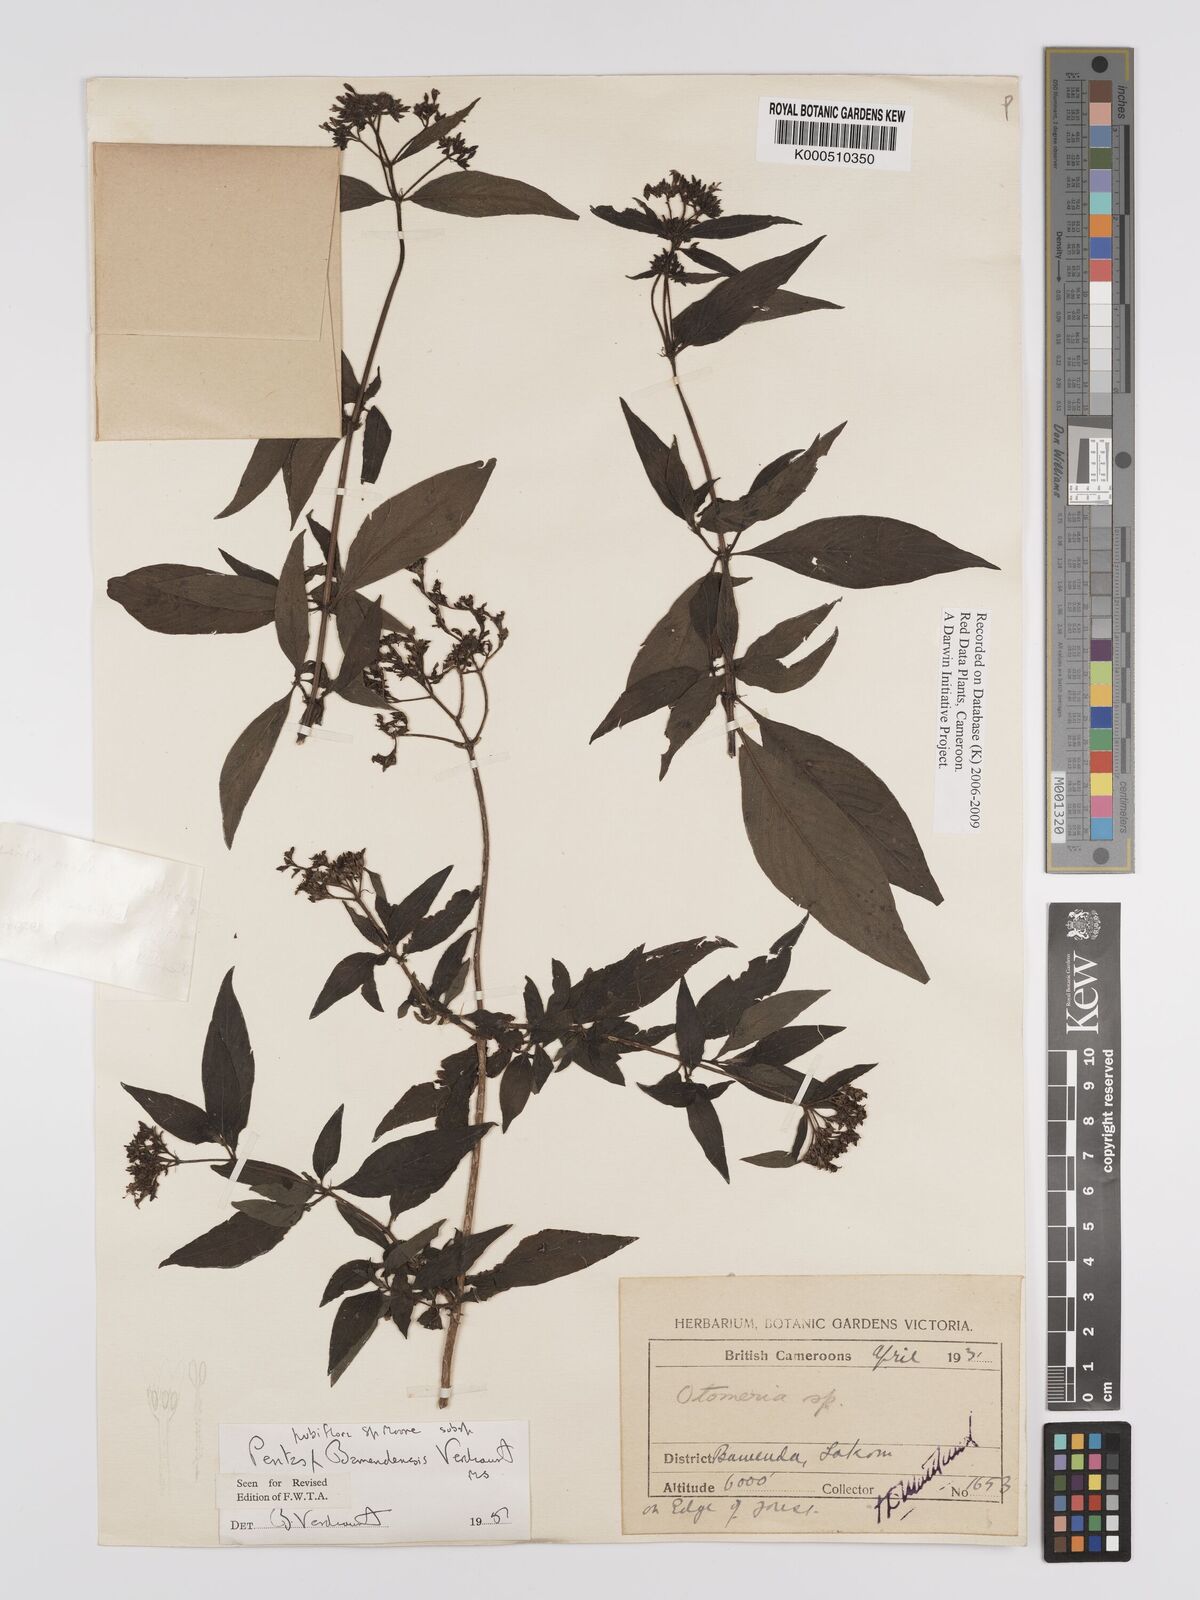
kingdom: Plantae
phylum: Tracheophyta
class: Magnoliopsida
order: Gentianales
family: Rubiaceae
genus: Pentas
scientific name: Pentas pubiflora
